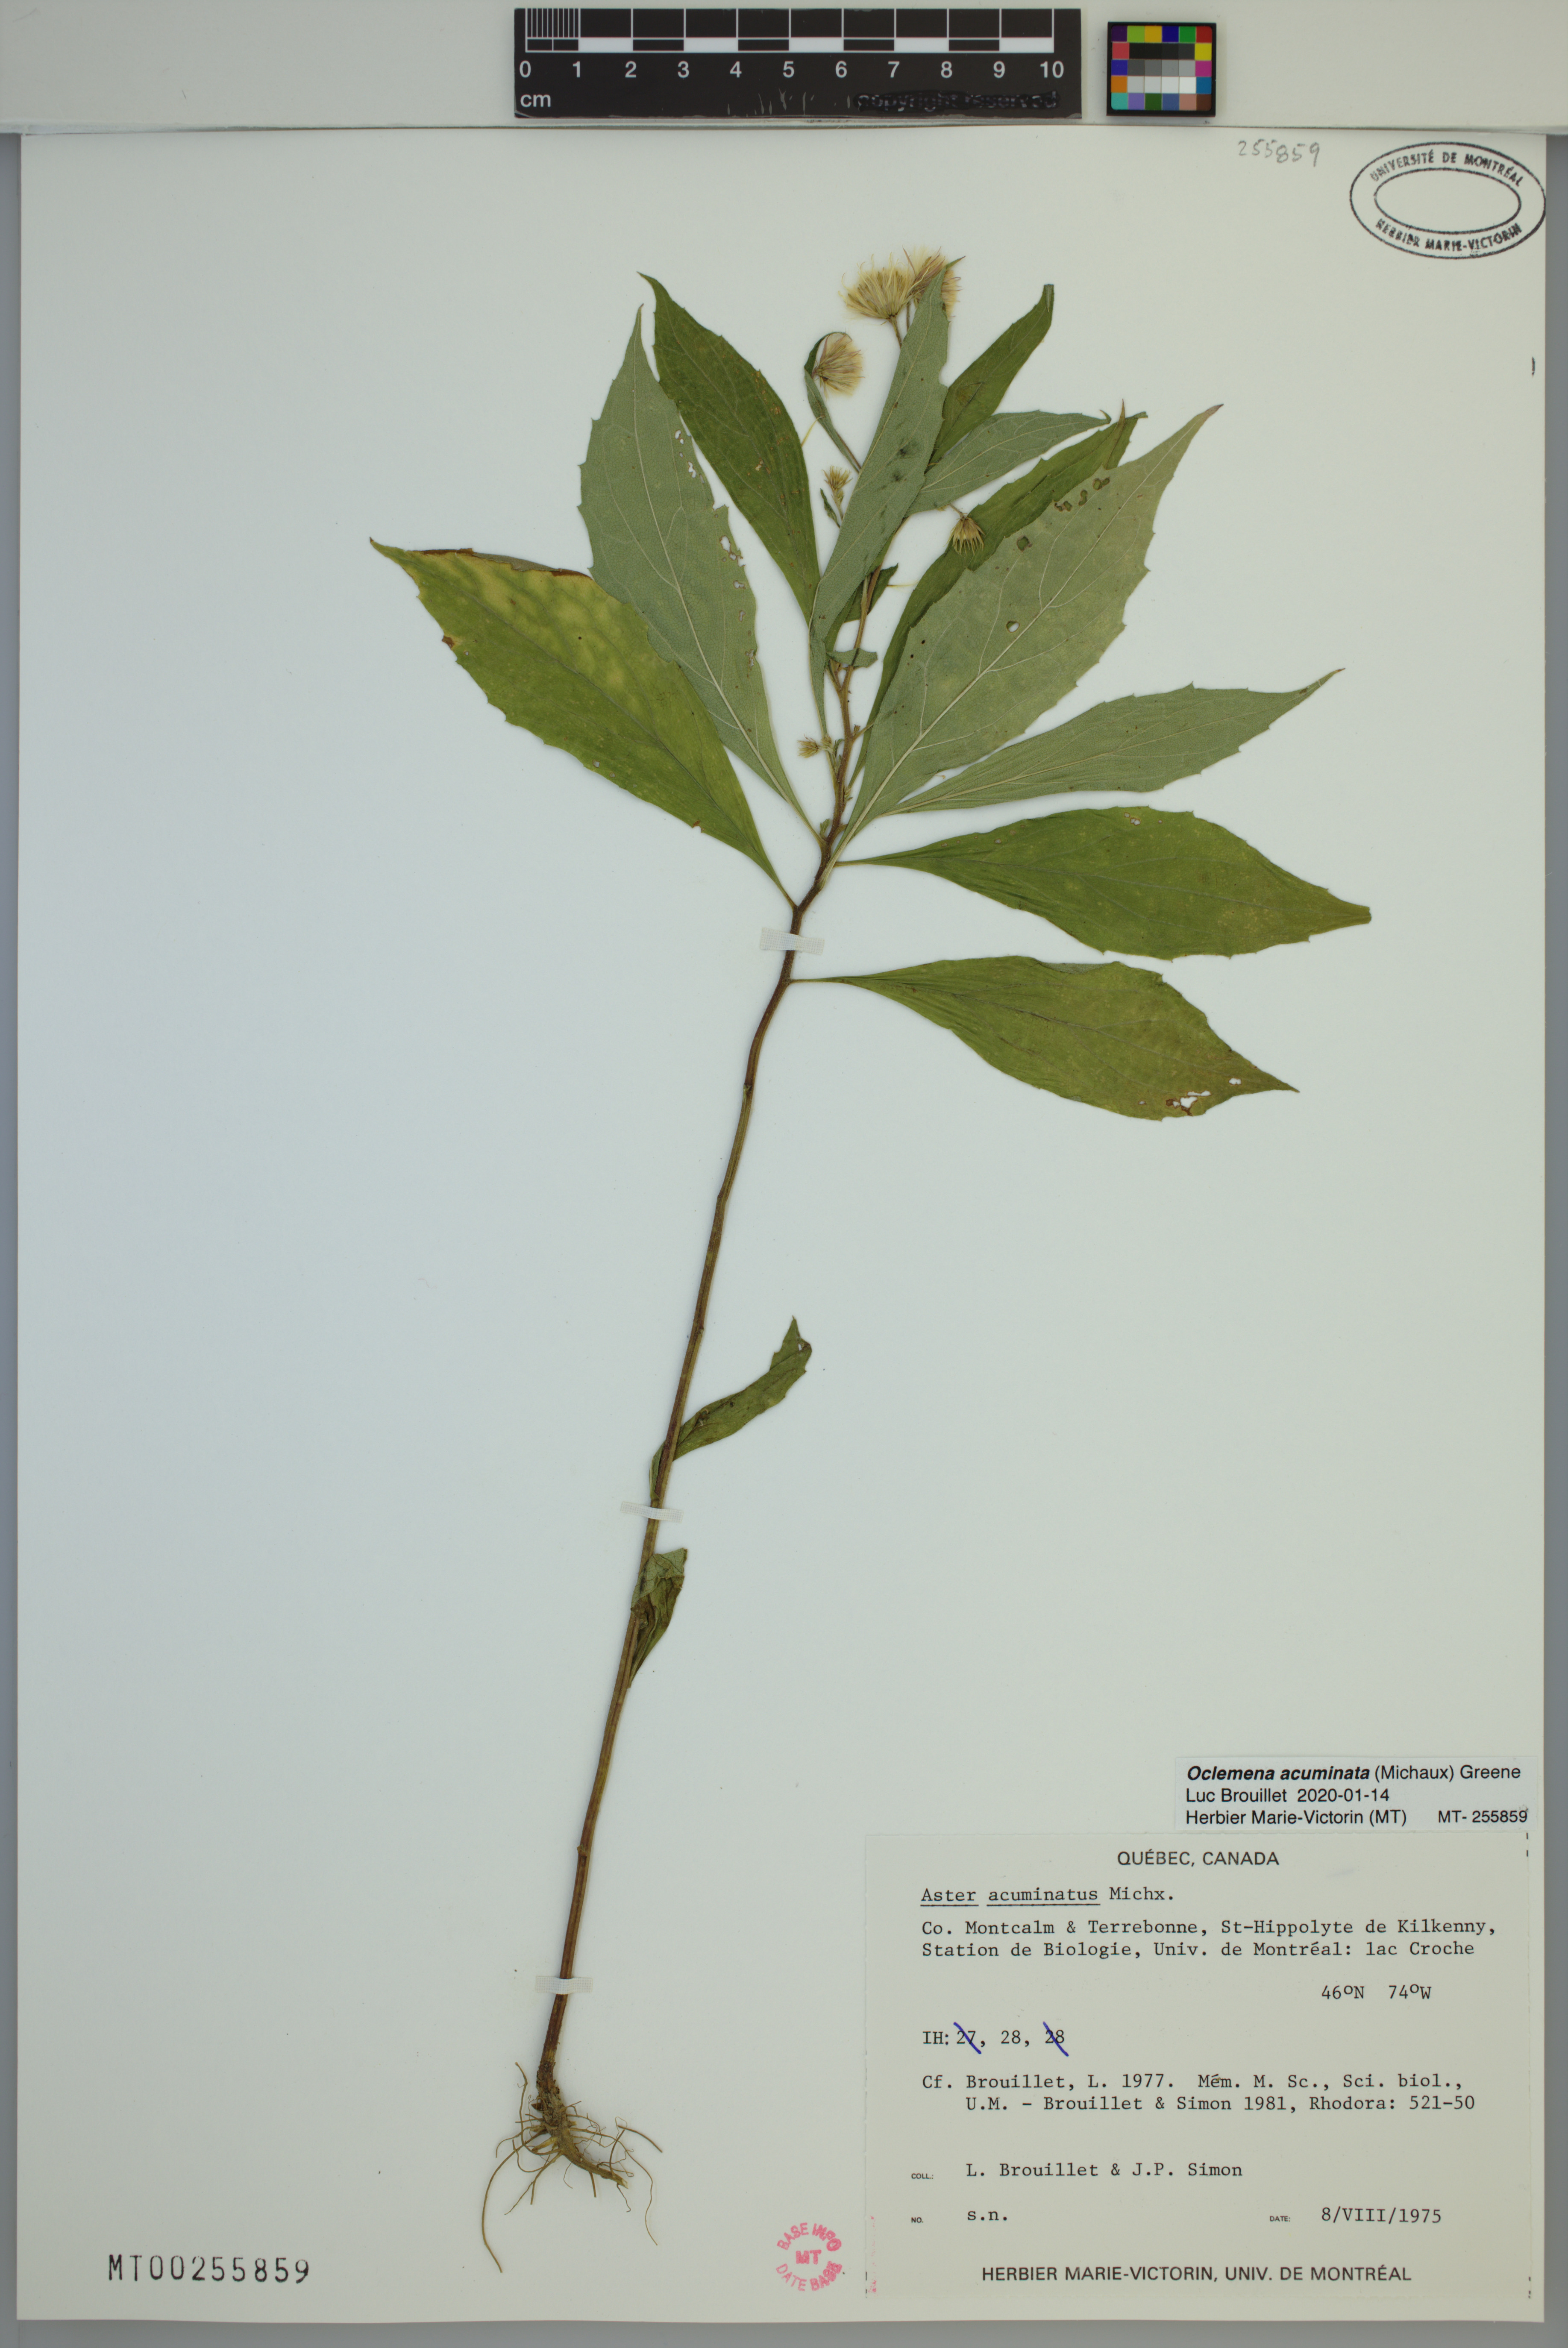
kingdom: Plantae
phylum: Tracheophyta
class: Magnoliopsida
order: Asterales
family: Asteraceae
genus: Oclemena
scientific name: Oclemena acuminata
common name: Mountain aster
